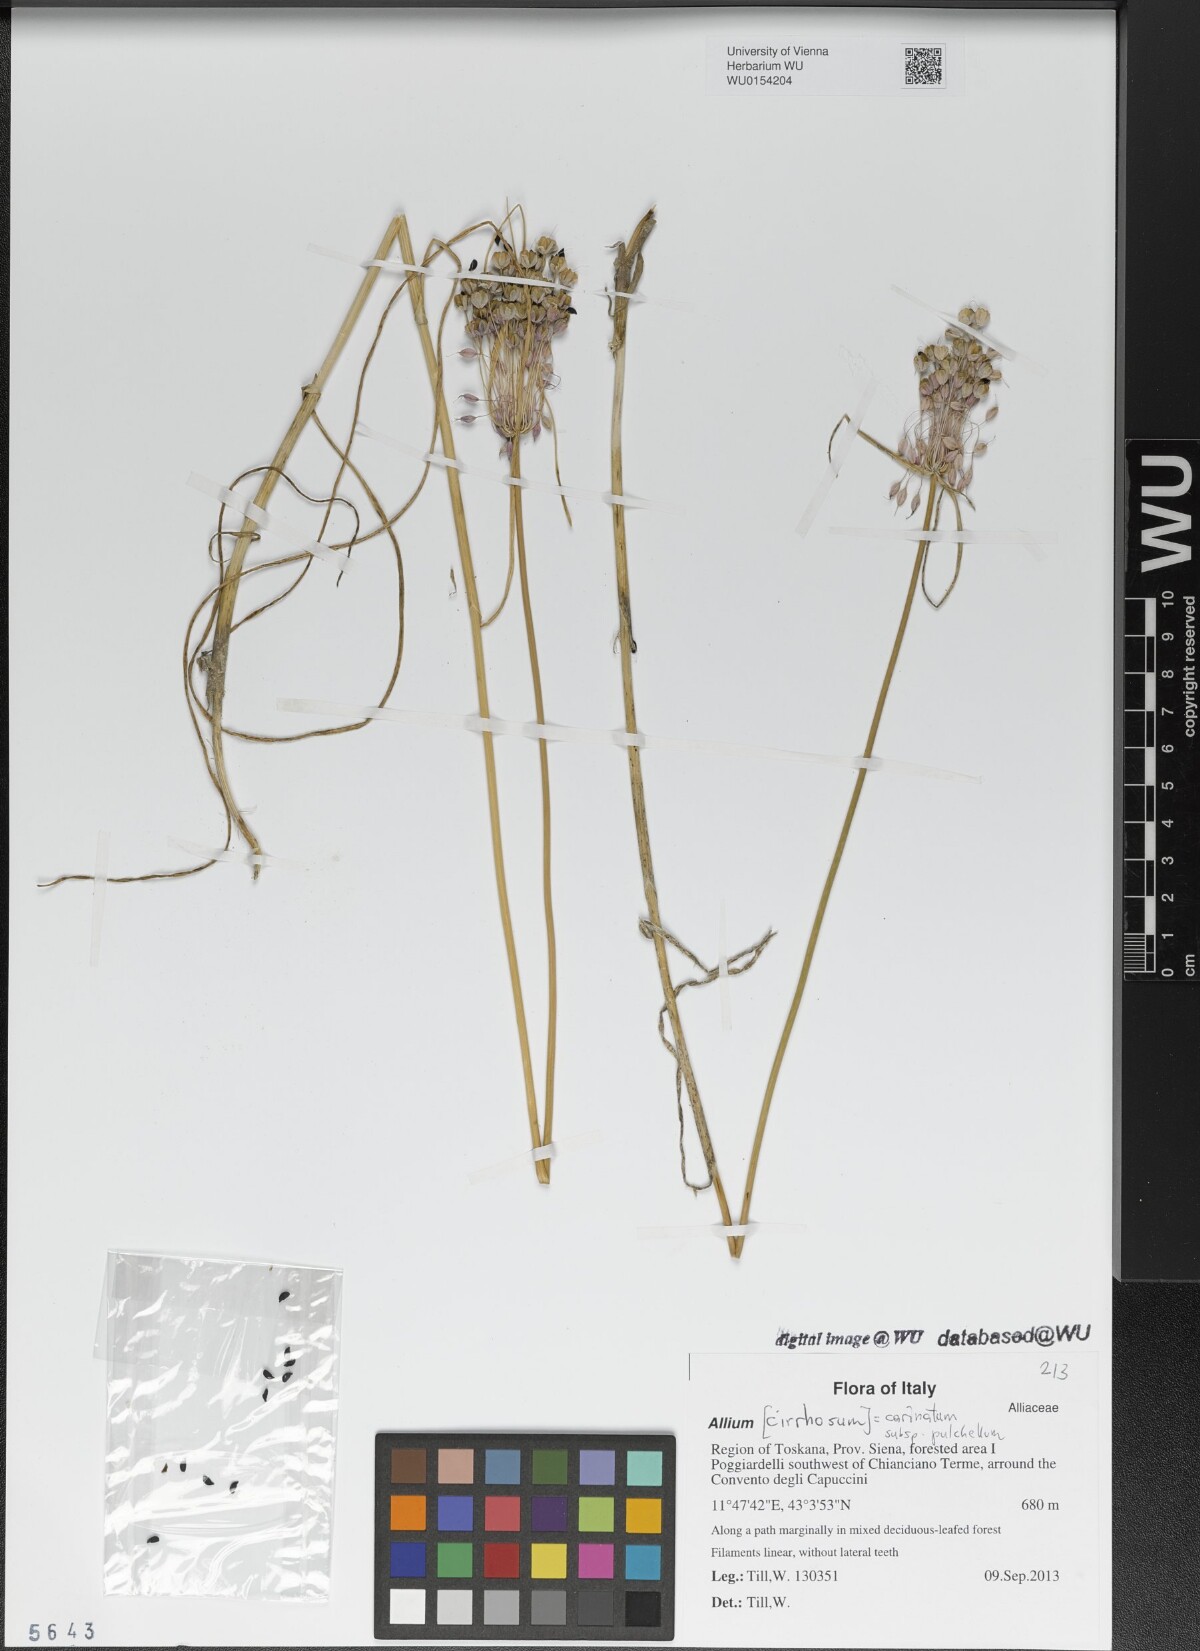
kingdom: Plantae
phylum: Tracheophyta
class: Liliopsida
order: Asparagales
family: Amaryllidaceae
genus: Allium
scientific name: Allium coloratum
